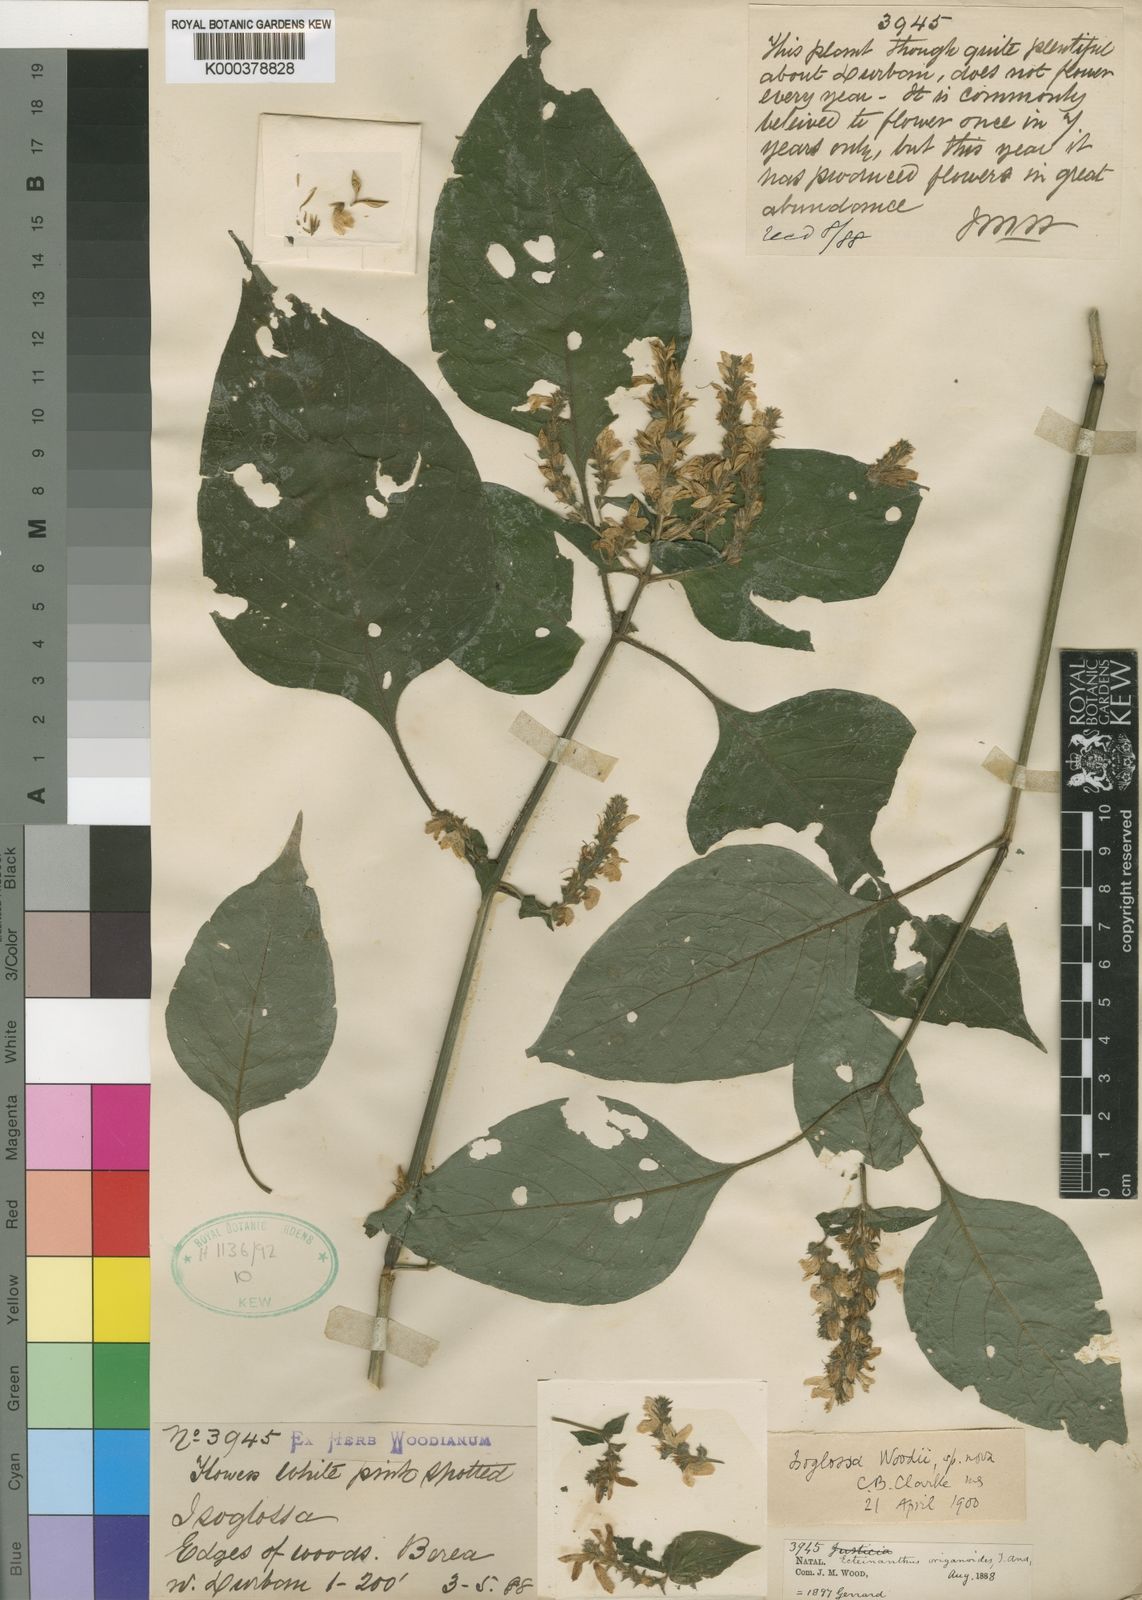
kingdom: Plantae
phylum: Tracheophyta
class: Magnoliopsida
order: Lamiales
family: Acanthaceae
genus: Isoglossa
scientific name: Isoglossa woodii
